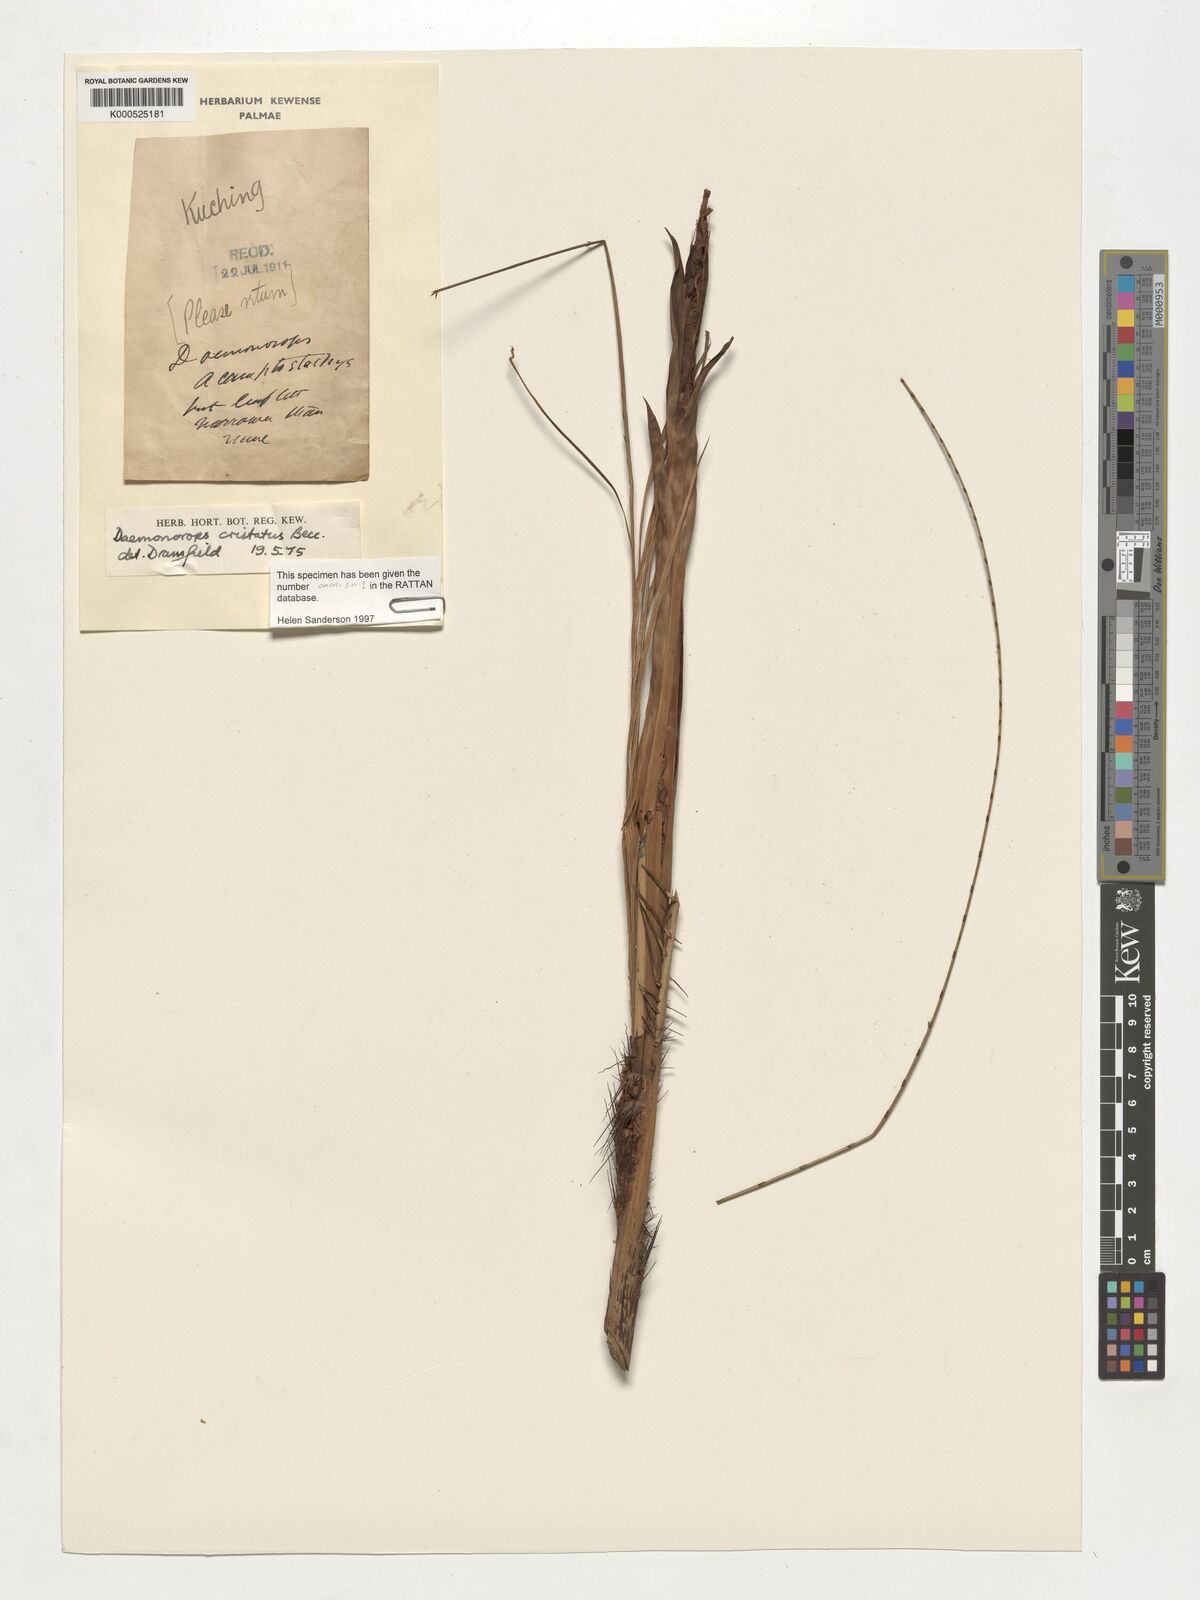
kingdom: Plantae
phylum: Tracheophyta
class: Liliopsida
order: Arecales
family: Arecaceae
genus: Calamus
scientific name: Calamus cristatus
